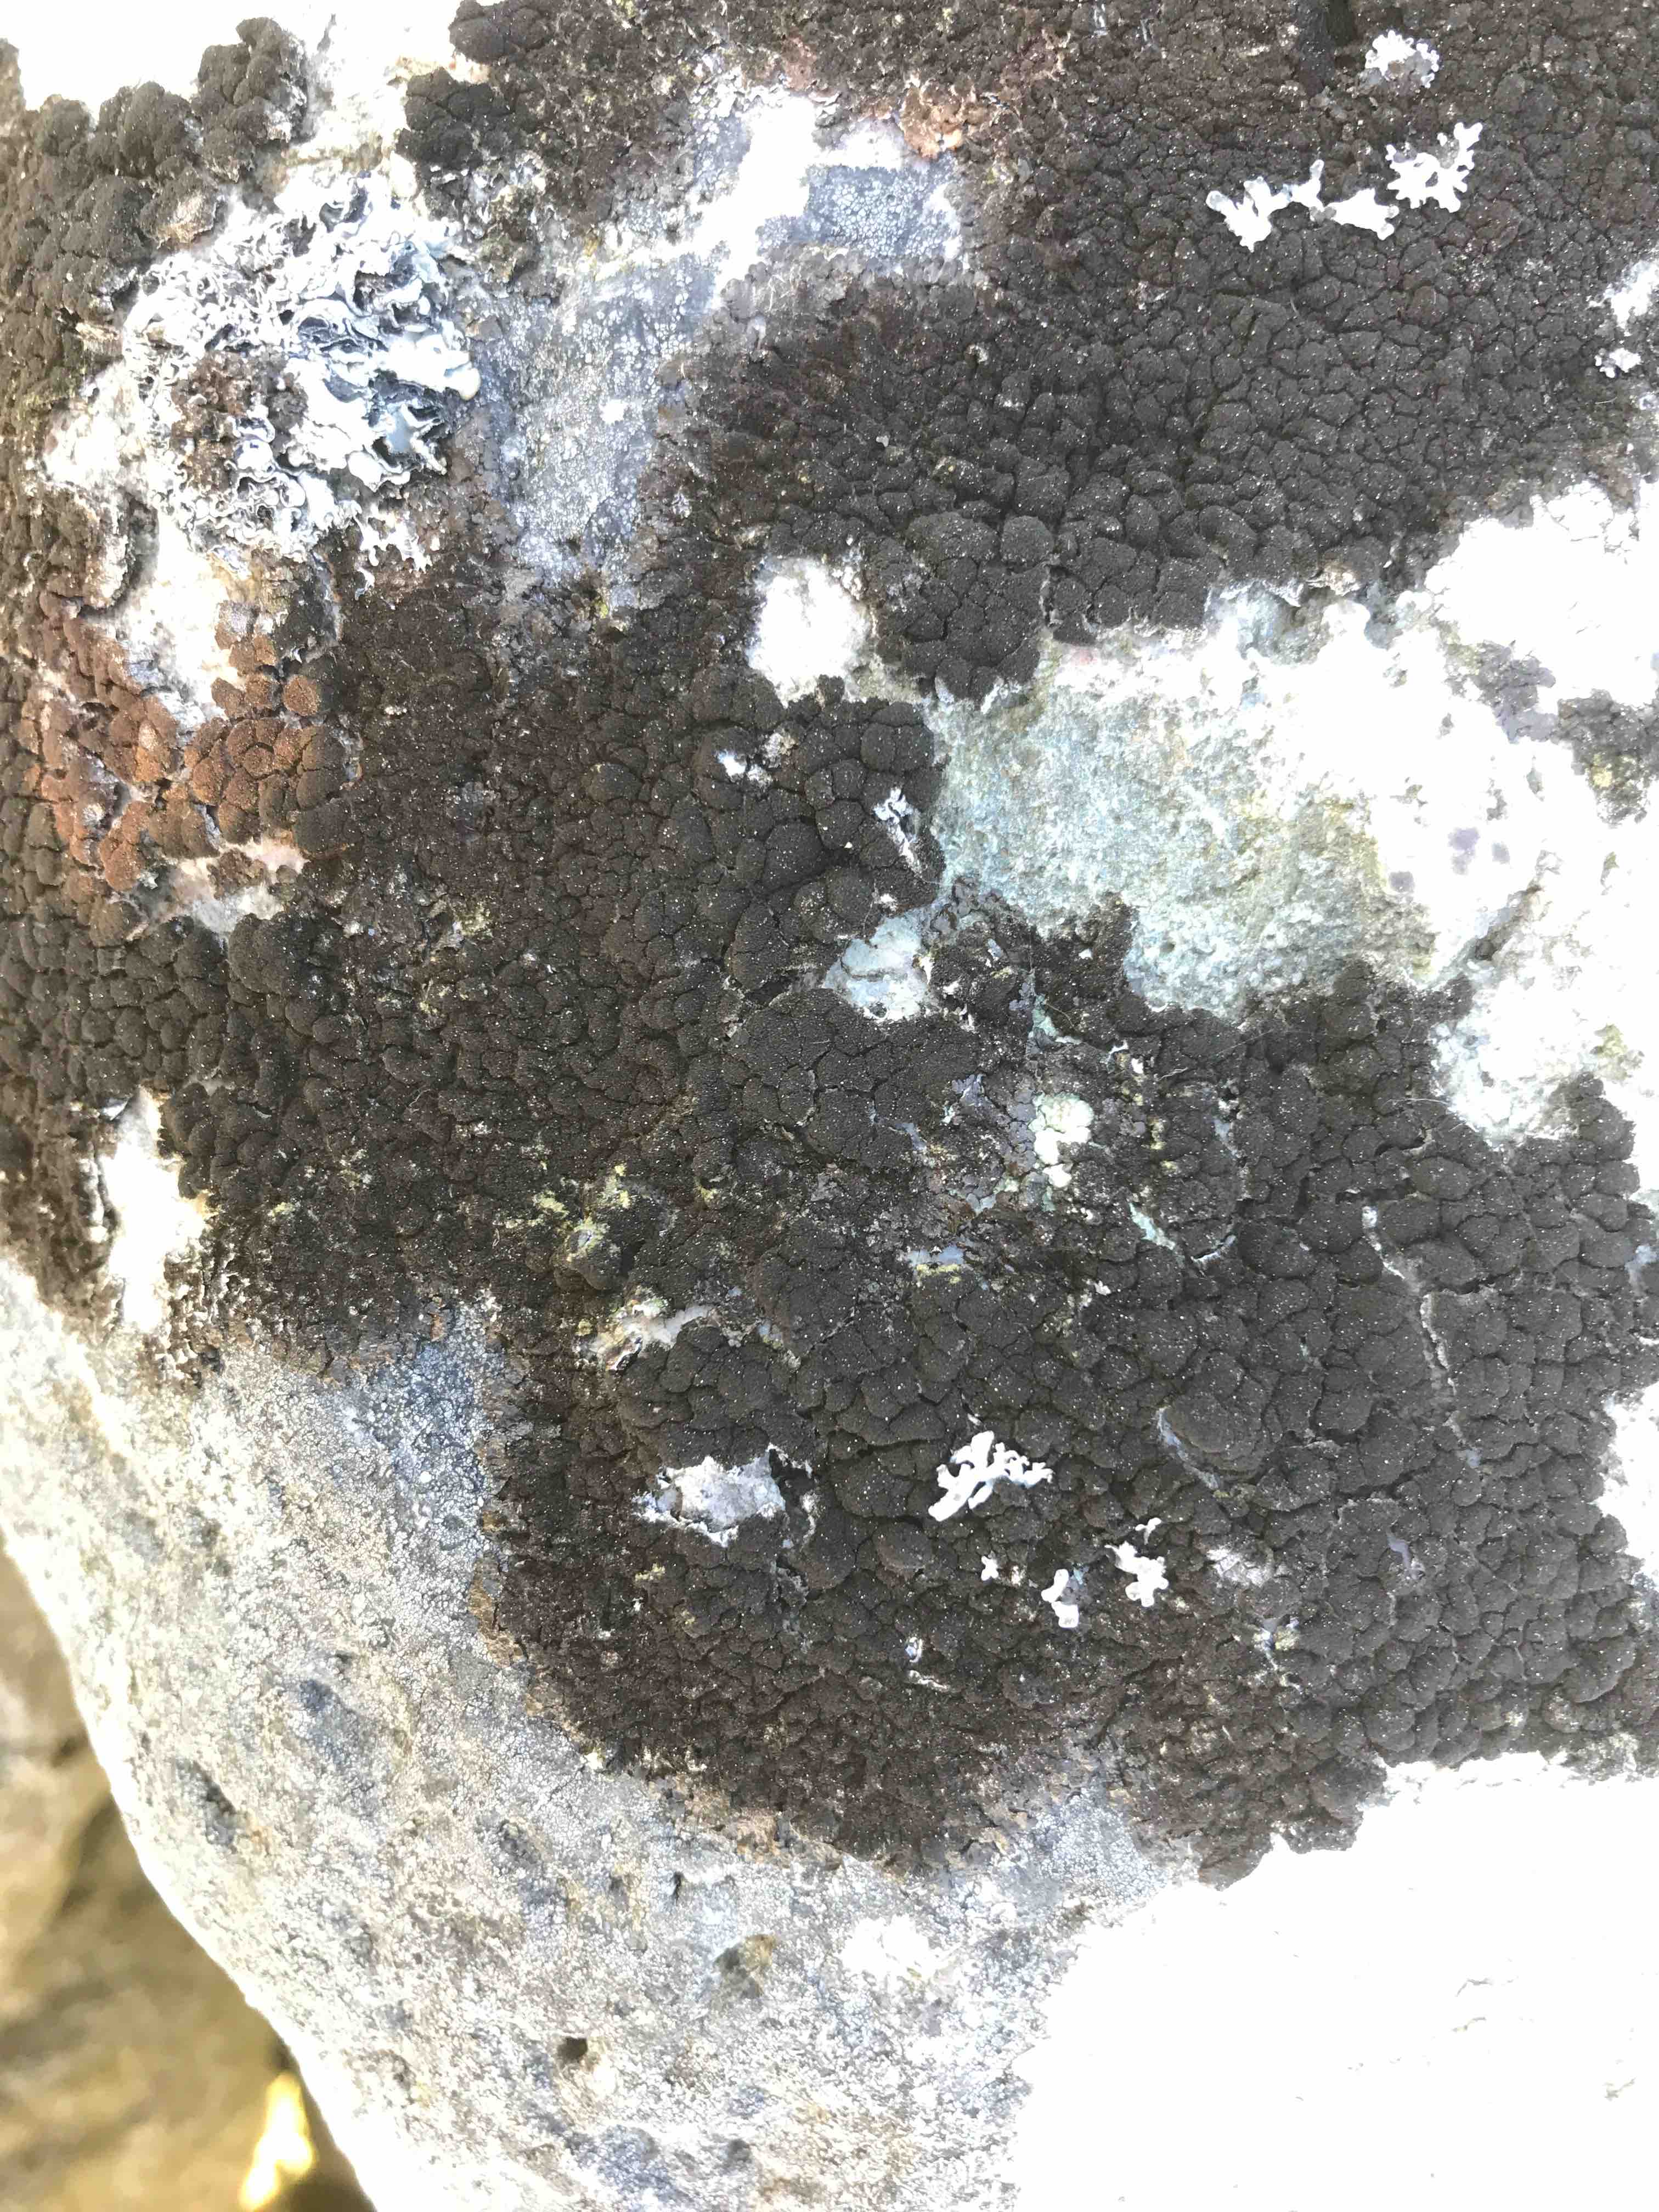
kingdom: Fungi
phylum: Ascomycota
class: Lecanoromycetes
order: Lecanorales
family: Parmeliaceae
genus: Melanelixia
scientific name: Melanelixia fuliginosa
